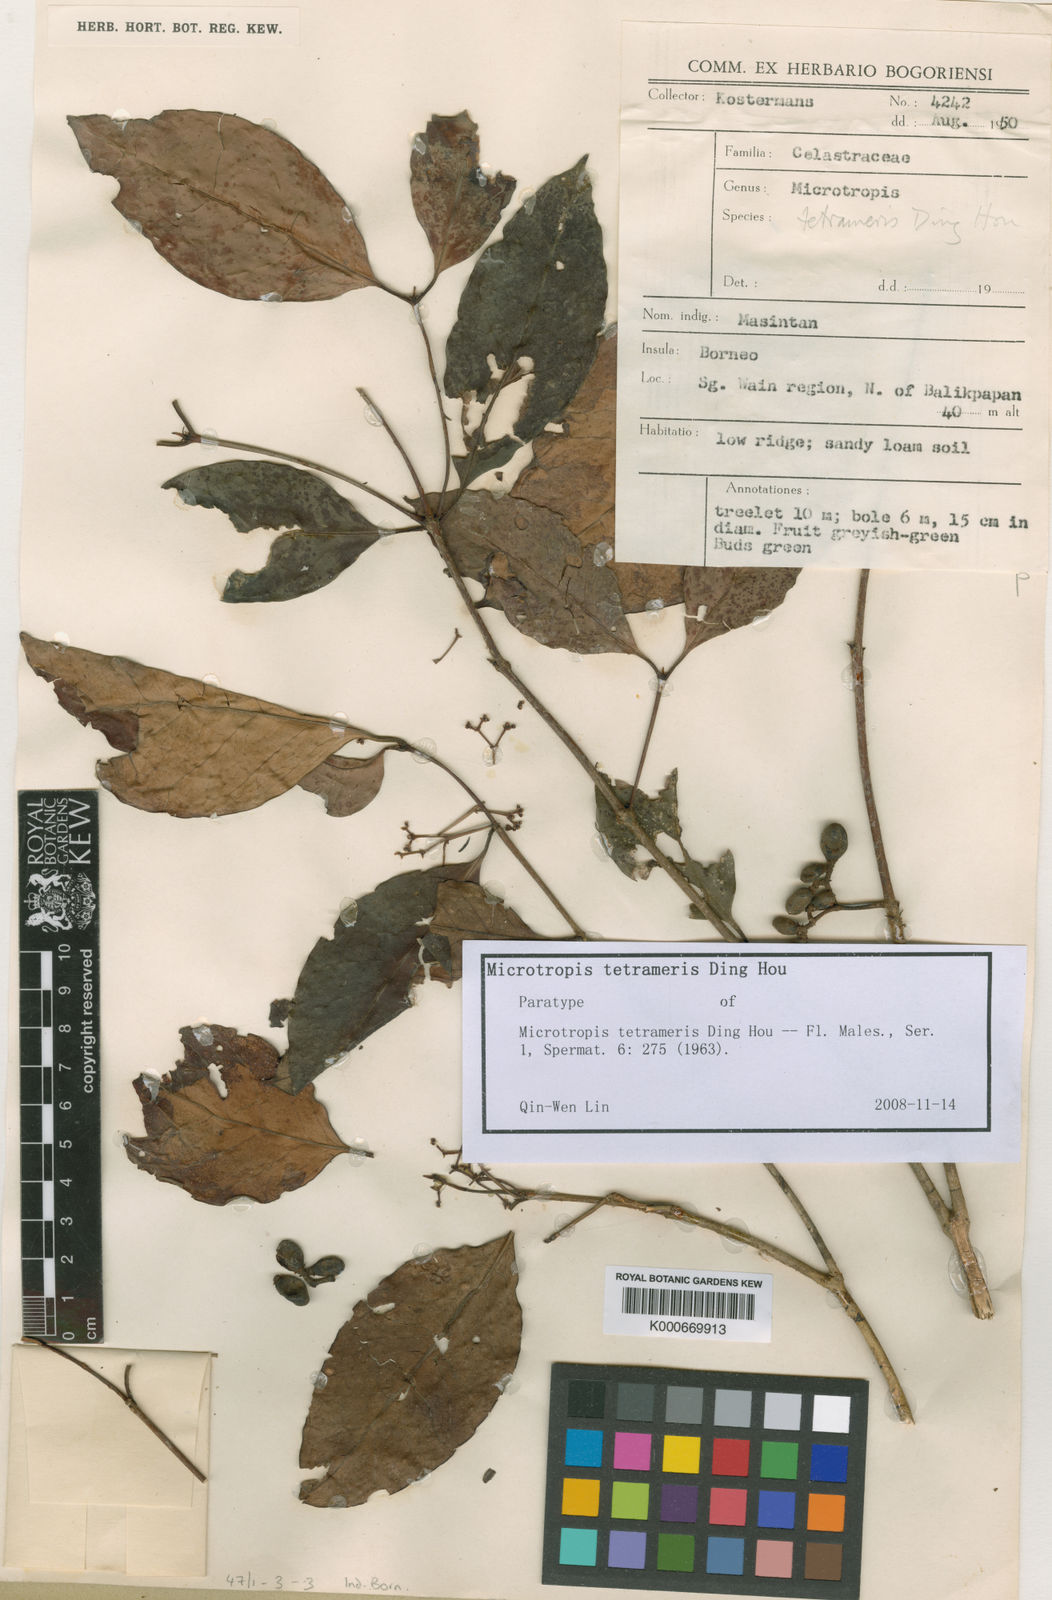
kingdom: Plantae
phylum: Tracheophyta
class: Magnoliopsida
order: Celastrales
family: Celastraceae
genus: Microtropis
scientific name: Microtropis tetrameris
